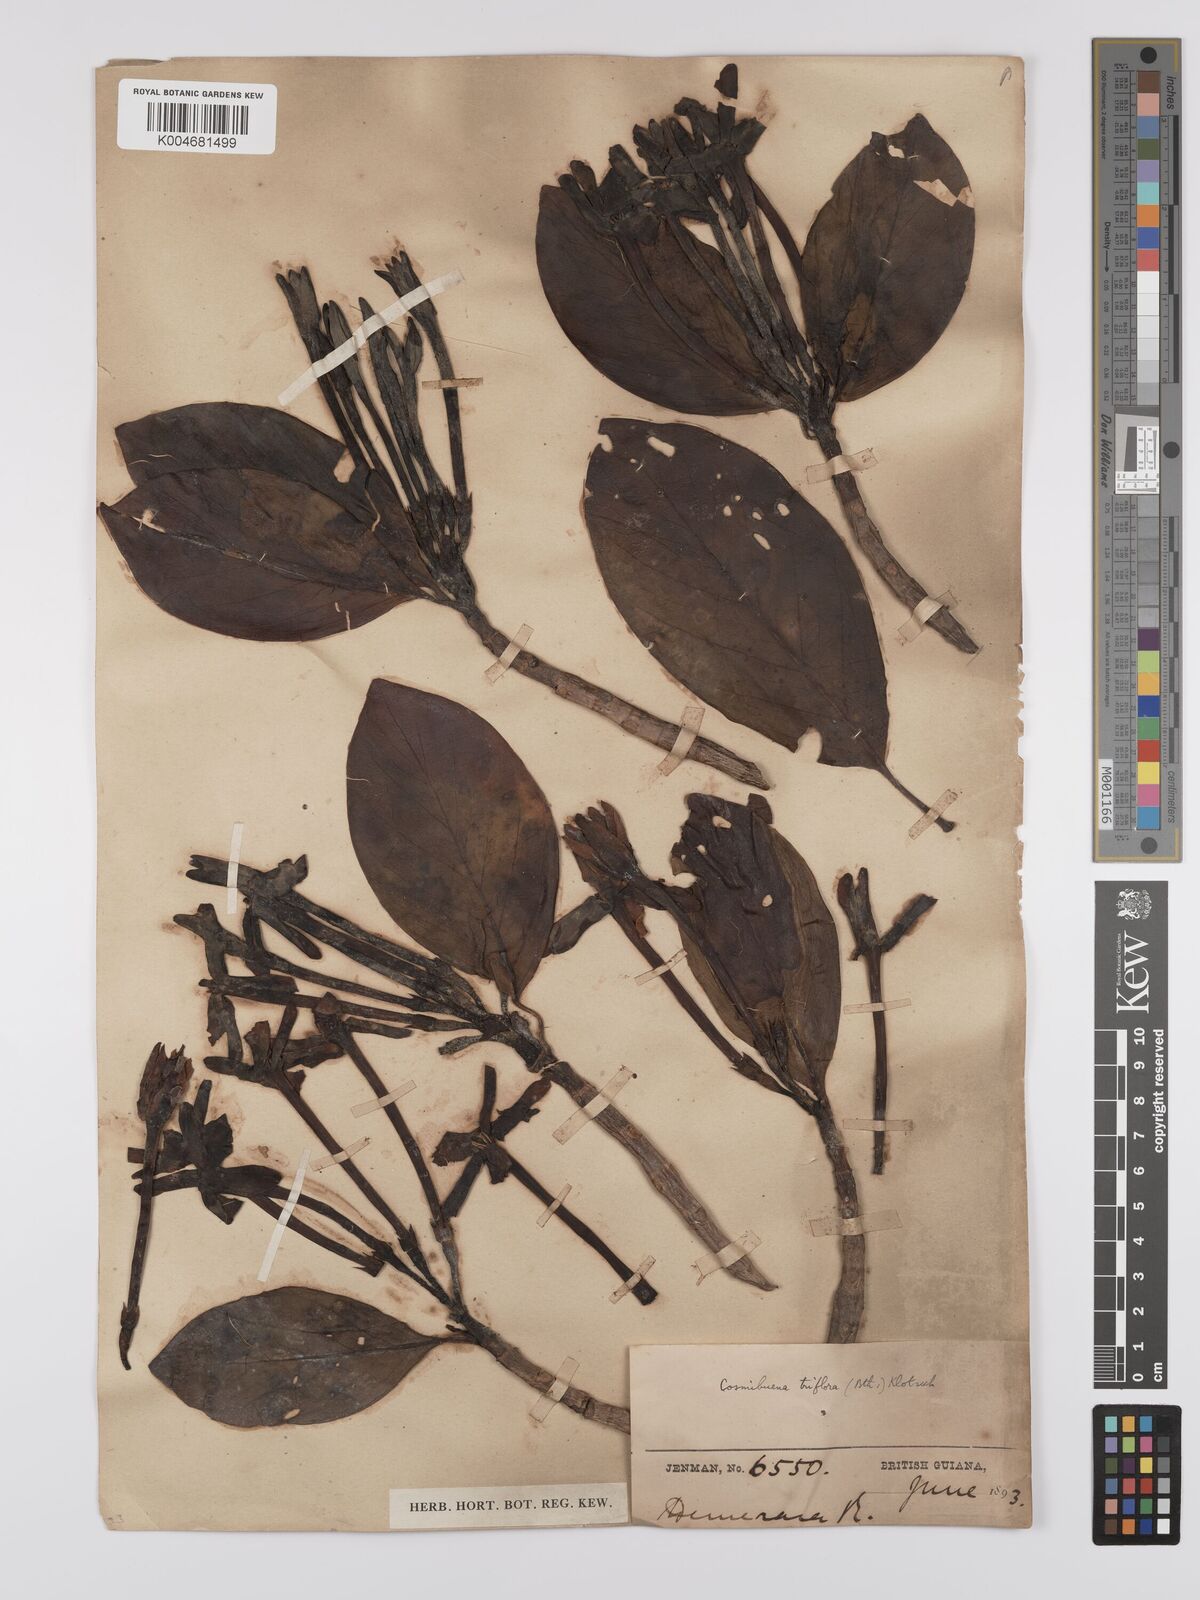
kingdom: Plantae
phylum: Tracheophyta
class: Magnoliopsida
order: Gentianales
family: Rubiaceae
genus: Cosmibuena
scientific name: Cosmibuena grandiflora
